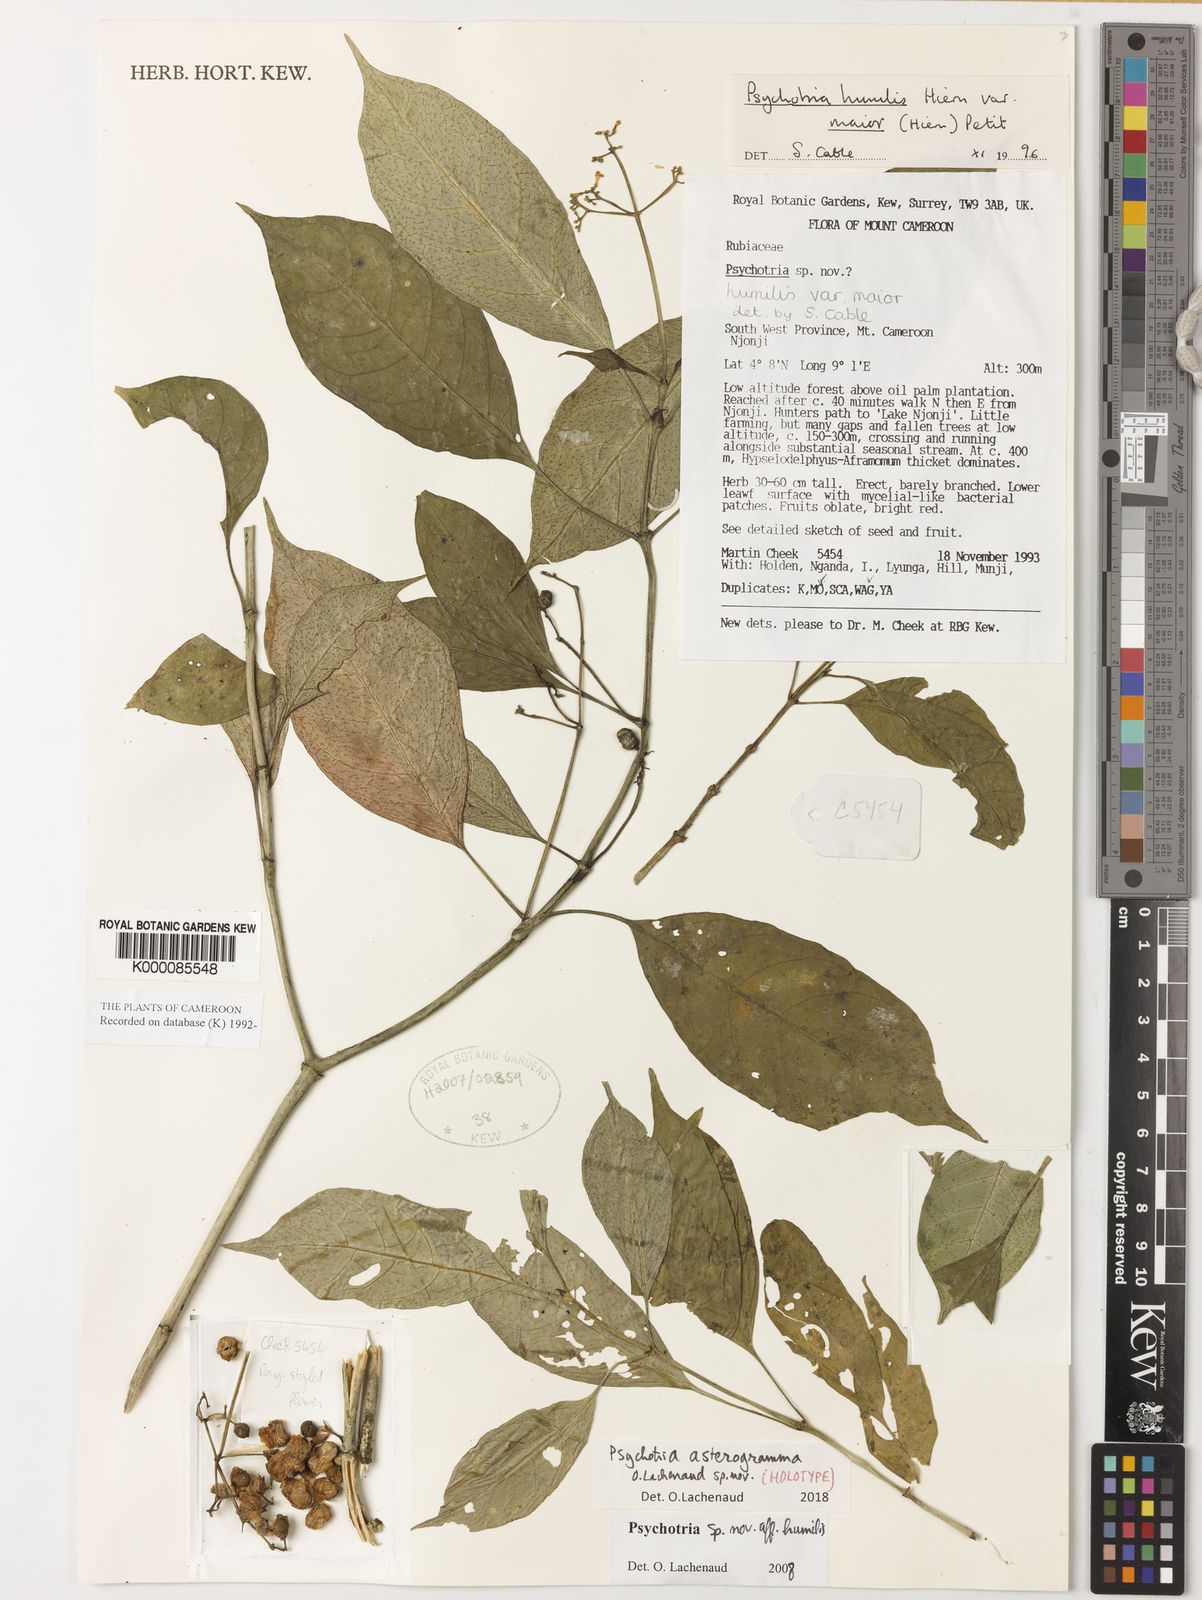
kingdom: Plantae
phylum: Tracheophyta
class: Magnoliopsida
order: Gentianales
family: Rubiaceae
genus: Psychotria
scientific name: Psychotria humilis
